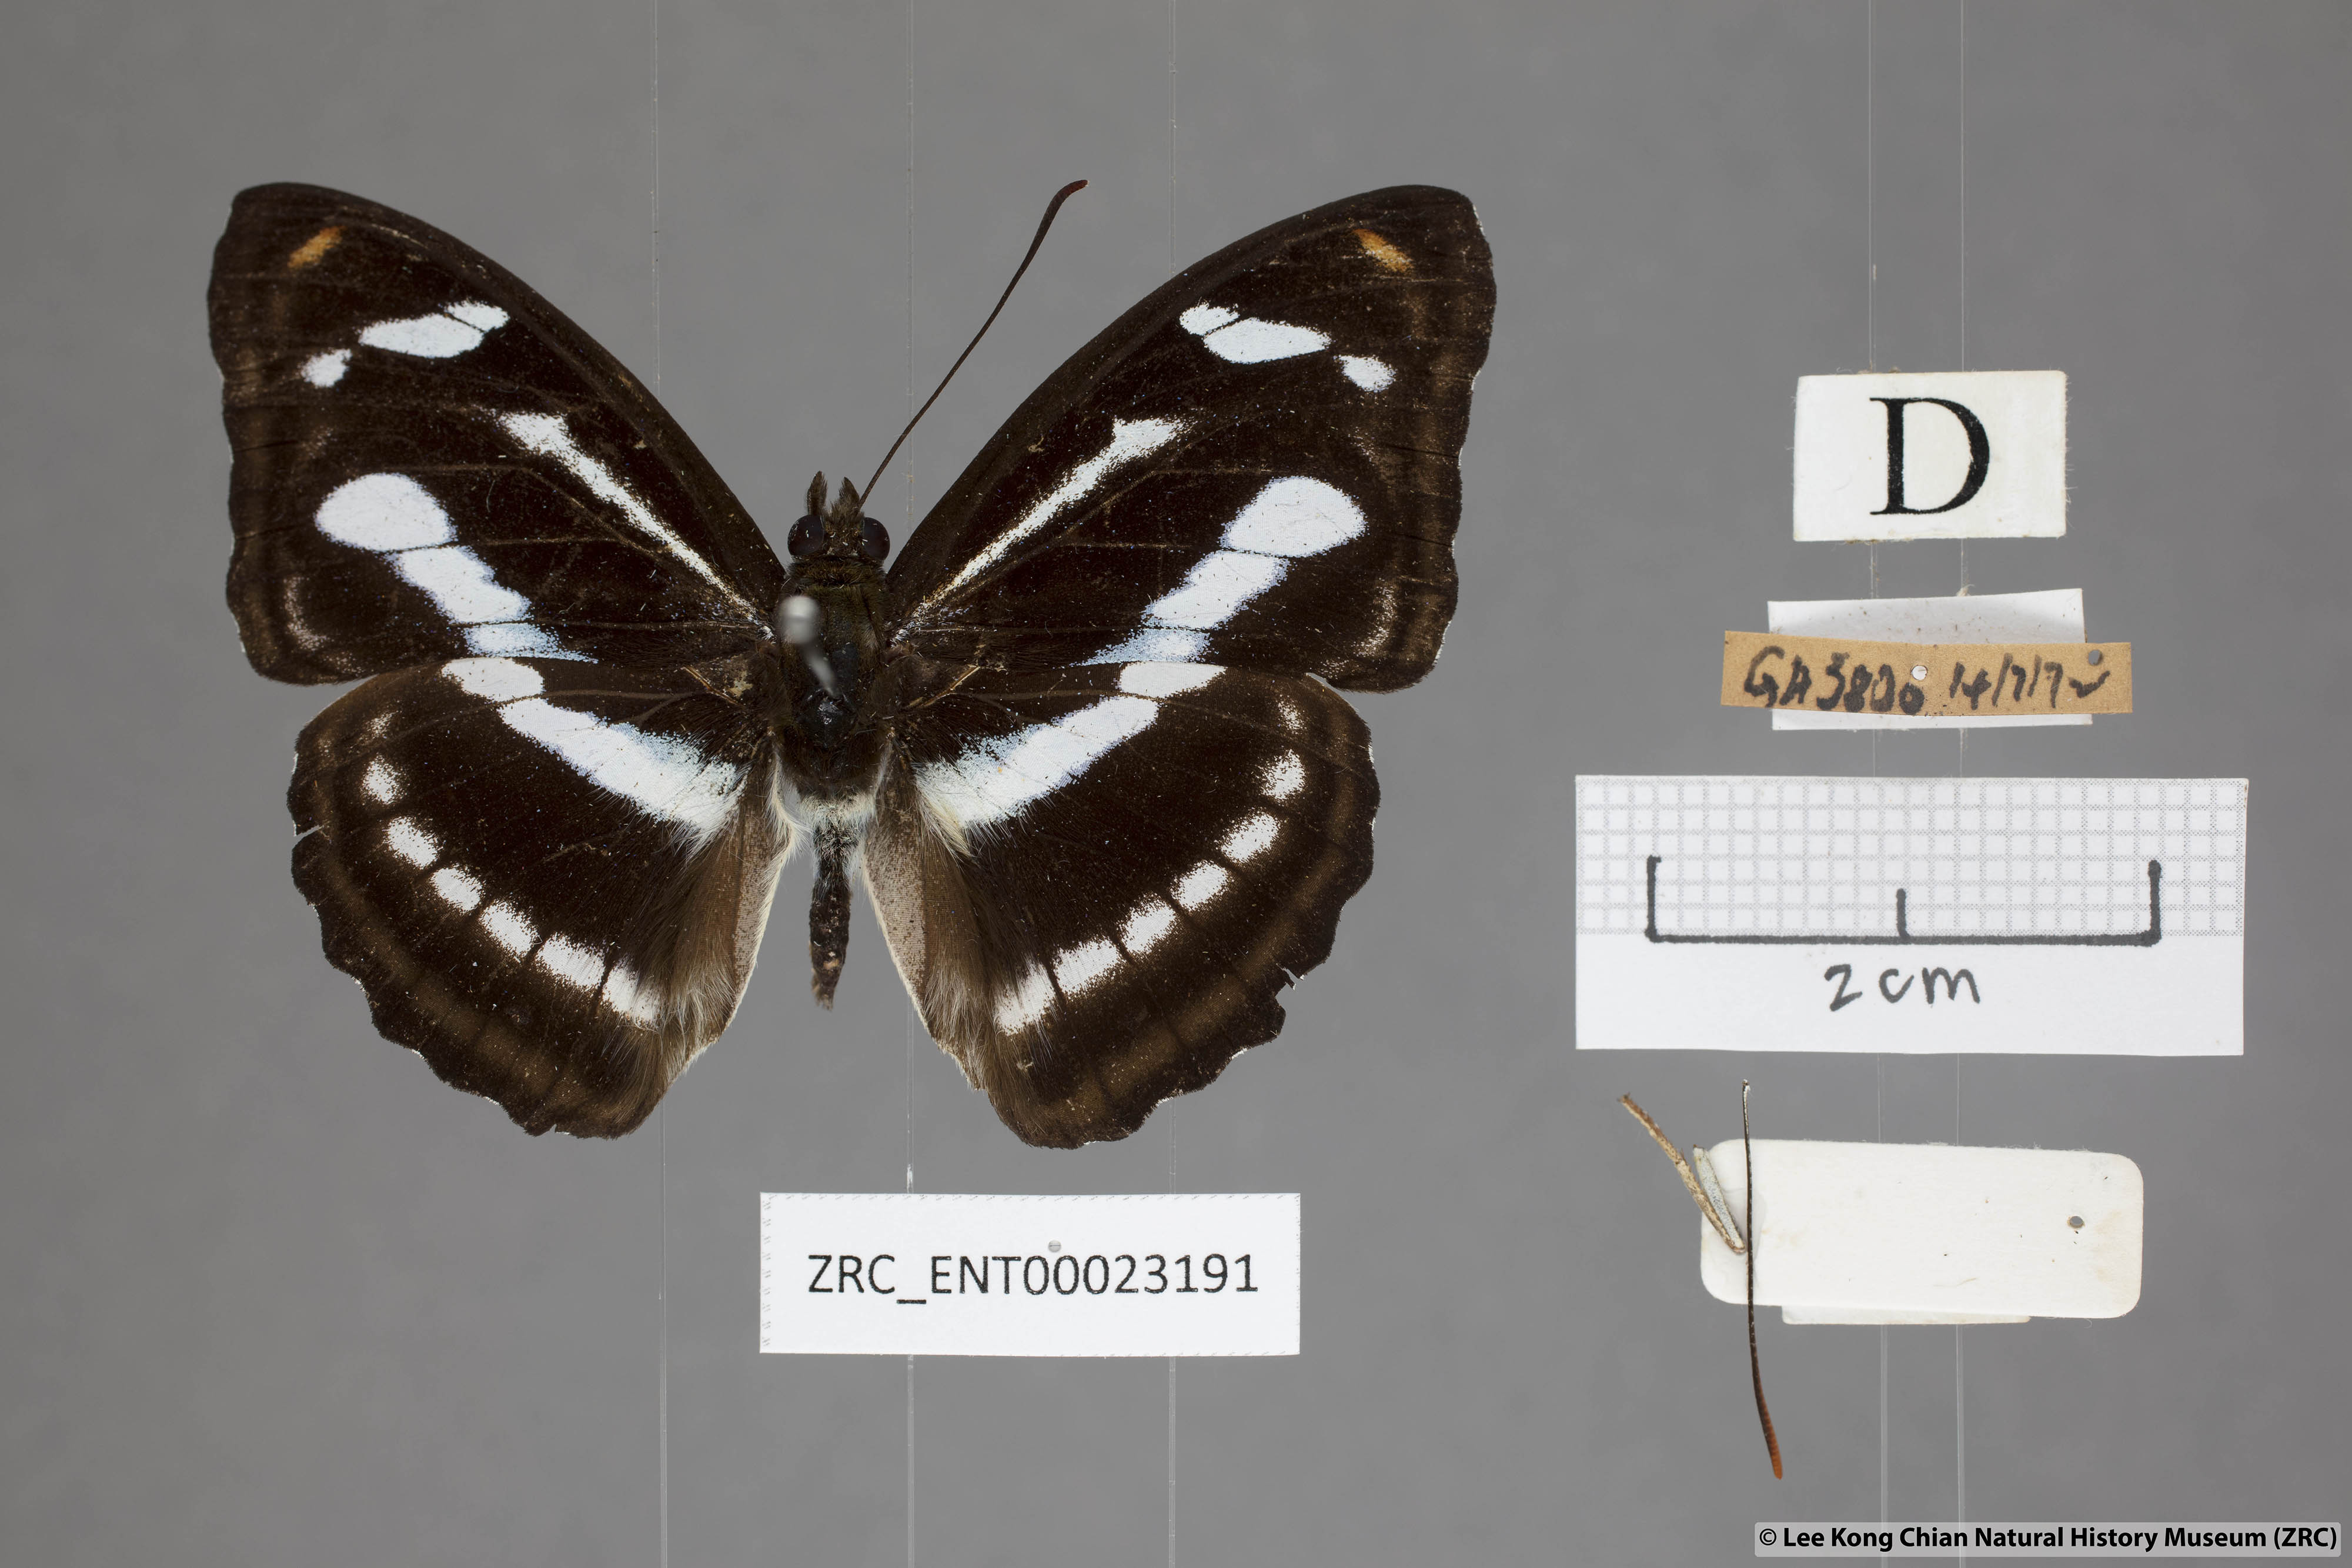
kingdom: Animalia
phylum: Arthropoda
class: Insecta
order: Lepidoptera
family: Nymphalidae
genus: Pantoporia
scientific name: Pantoporia cama
